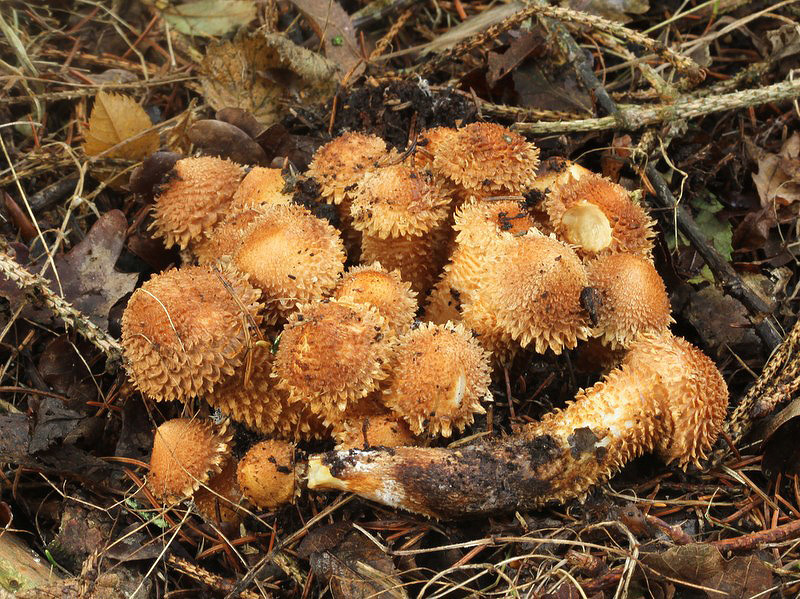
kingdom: Fungi
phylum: Basidiomycota
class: Agaricomycetes
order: Agaricales
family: Strophariaceae
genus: Pholiota
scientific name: Pholiota squarrosa
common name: krumskællet skælhat
